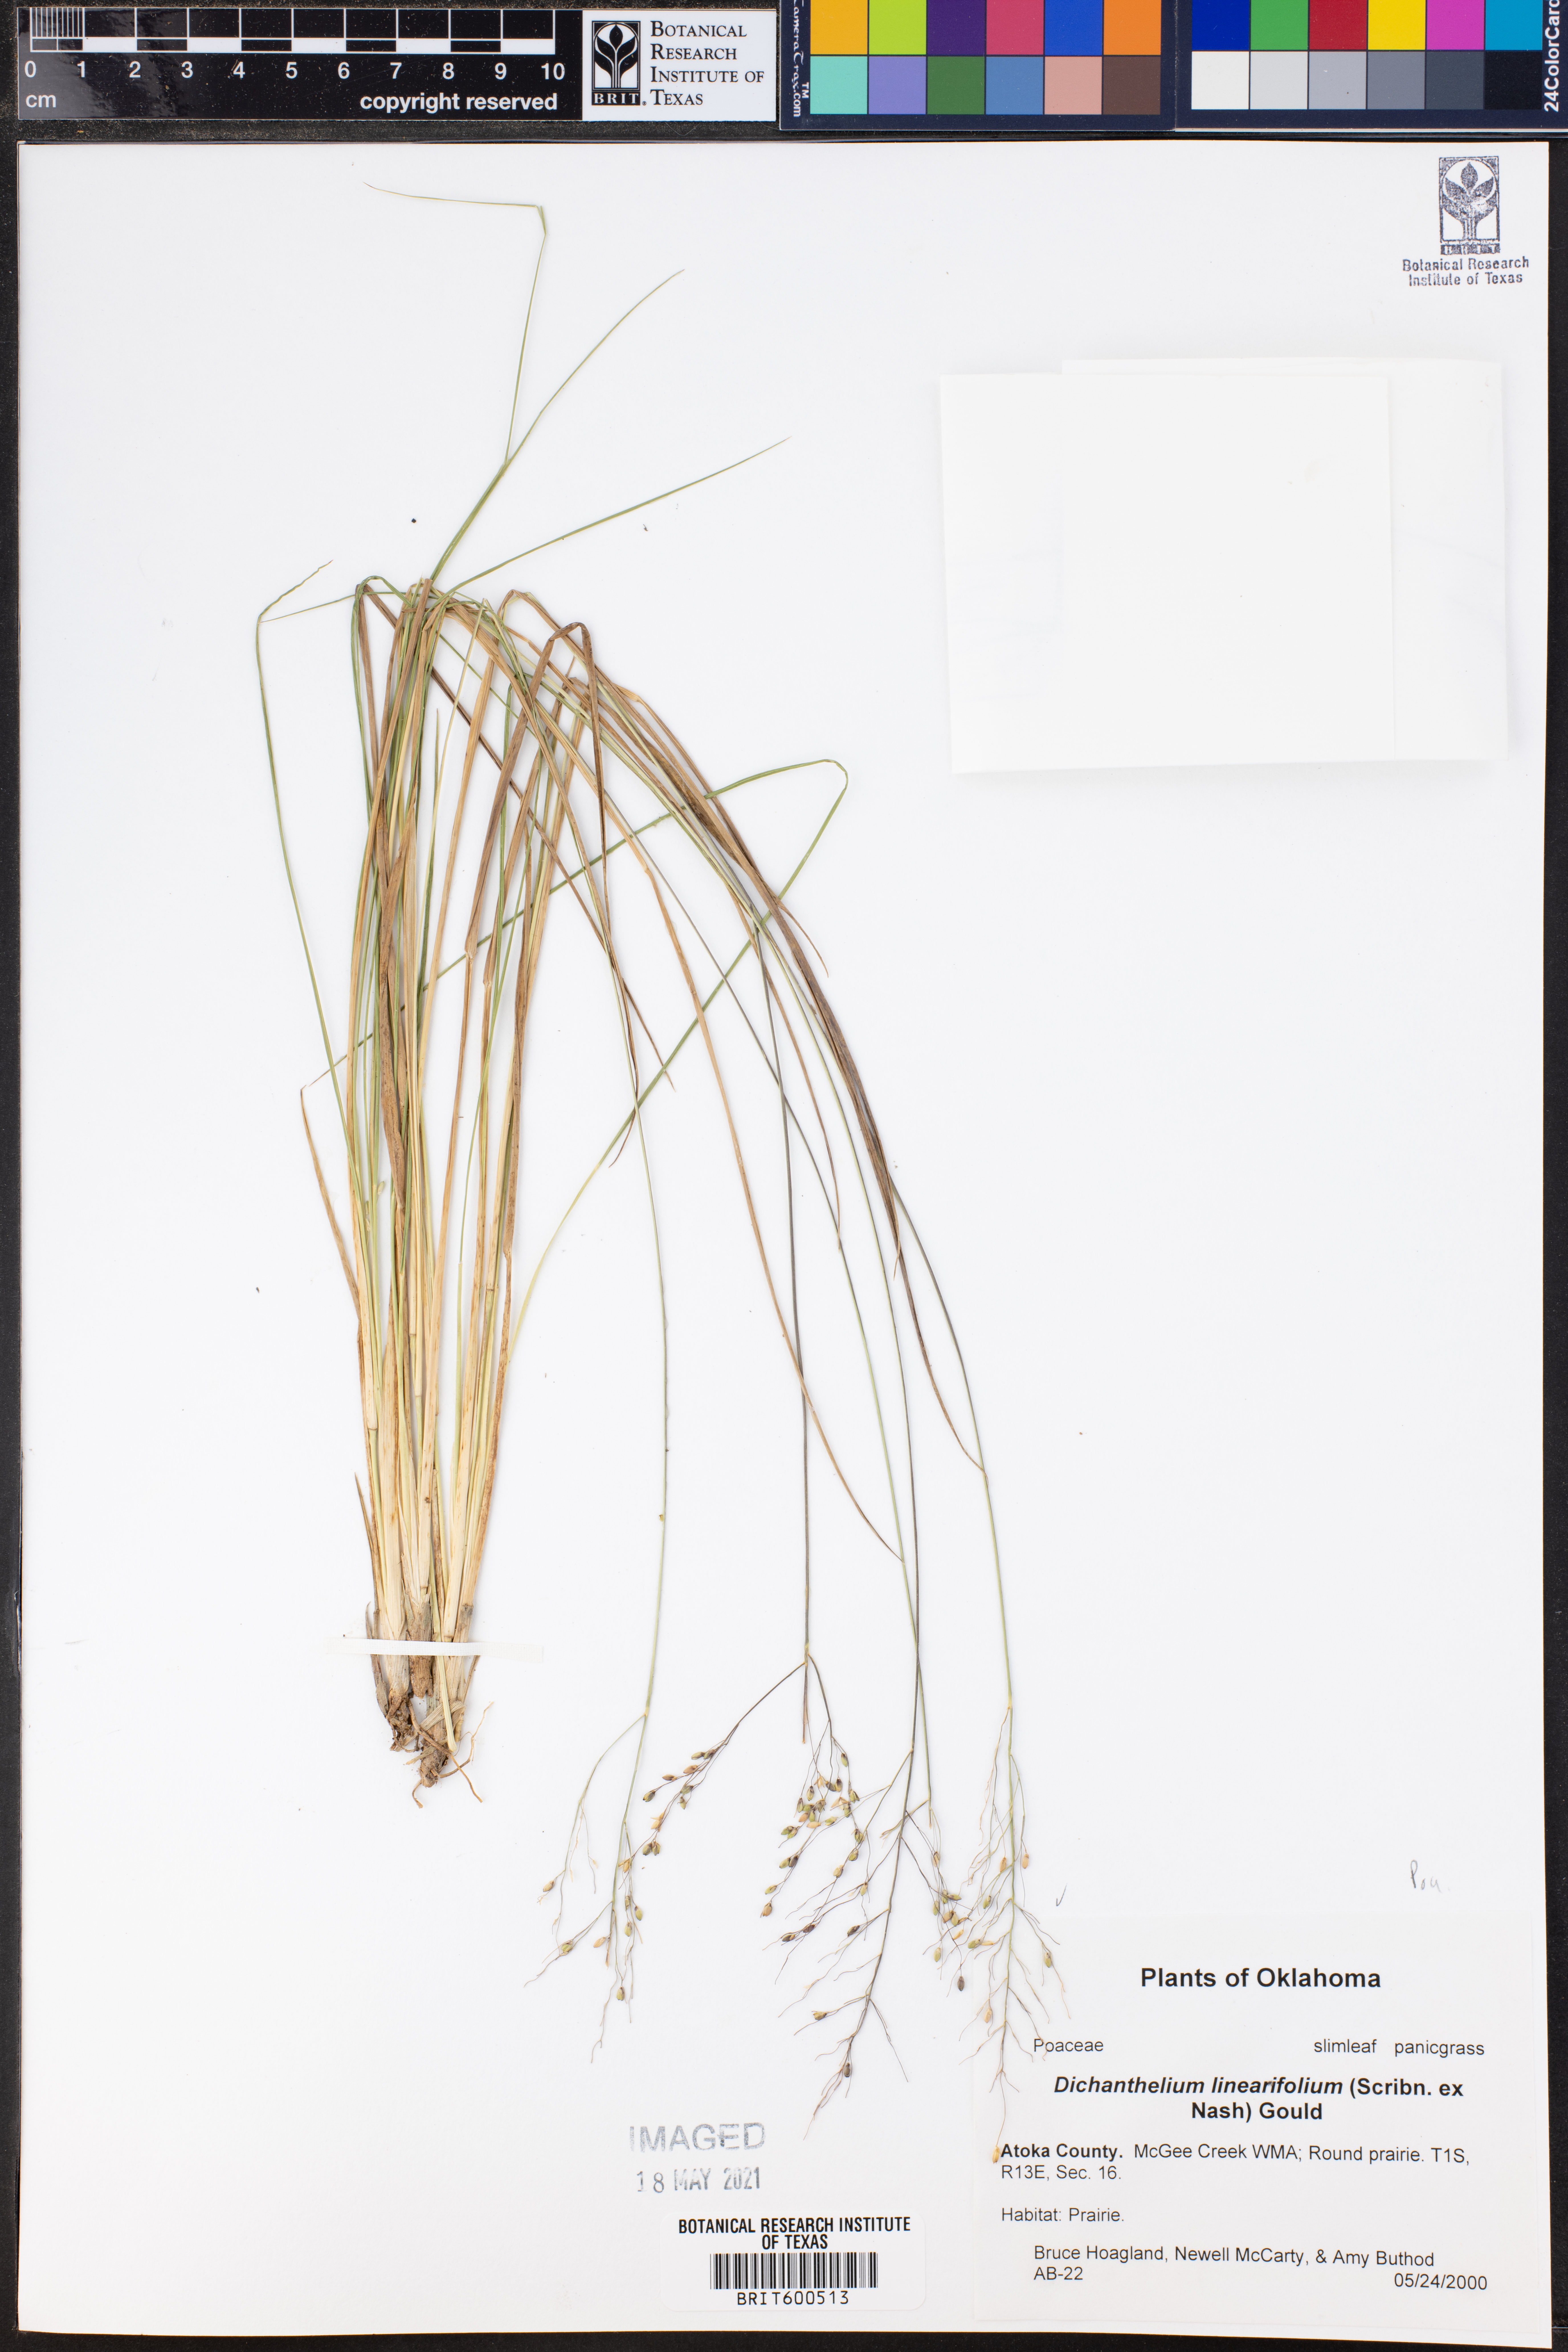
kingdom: Plantae
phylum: Tracheophyta
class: Liliopsida
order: Poales
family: Poaceae
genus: Dichanthelium
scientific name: Dichanthelium linearifolium
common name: Linear-leaved panicgrass
